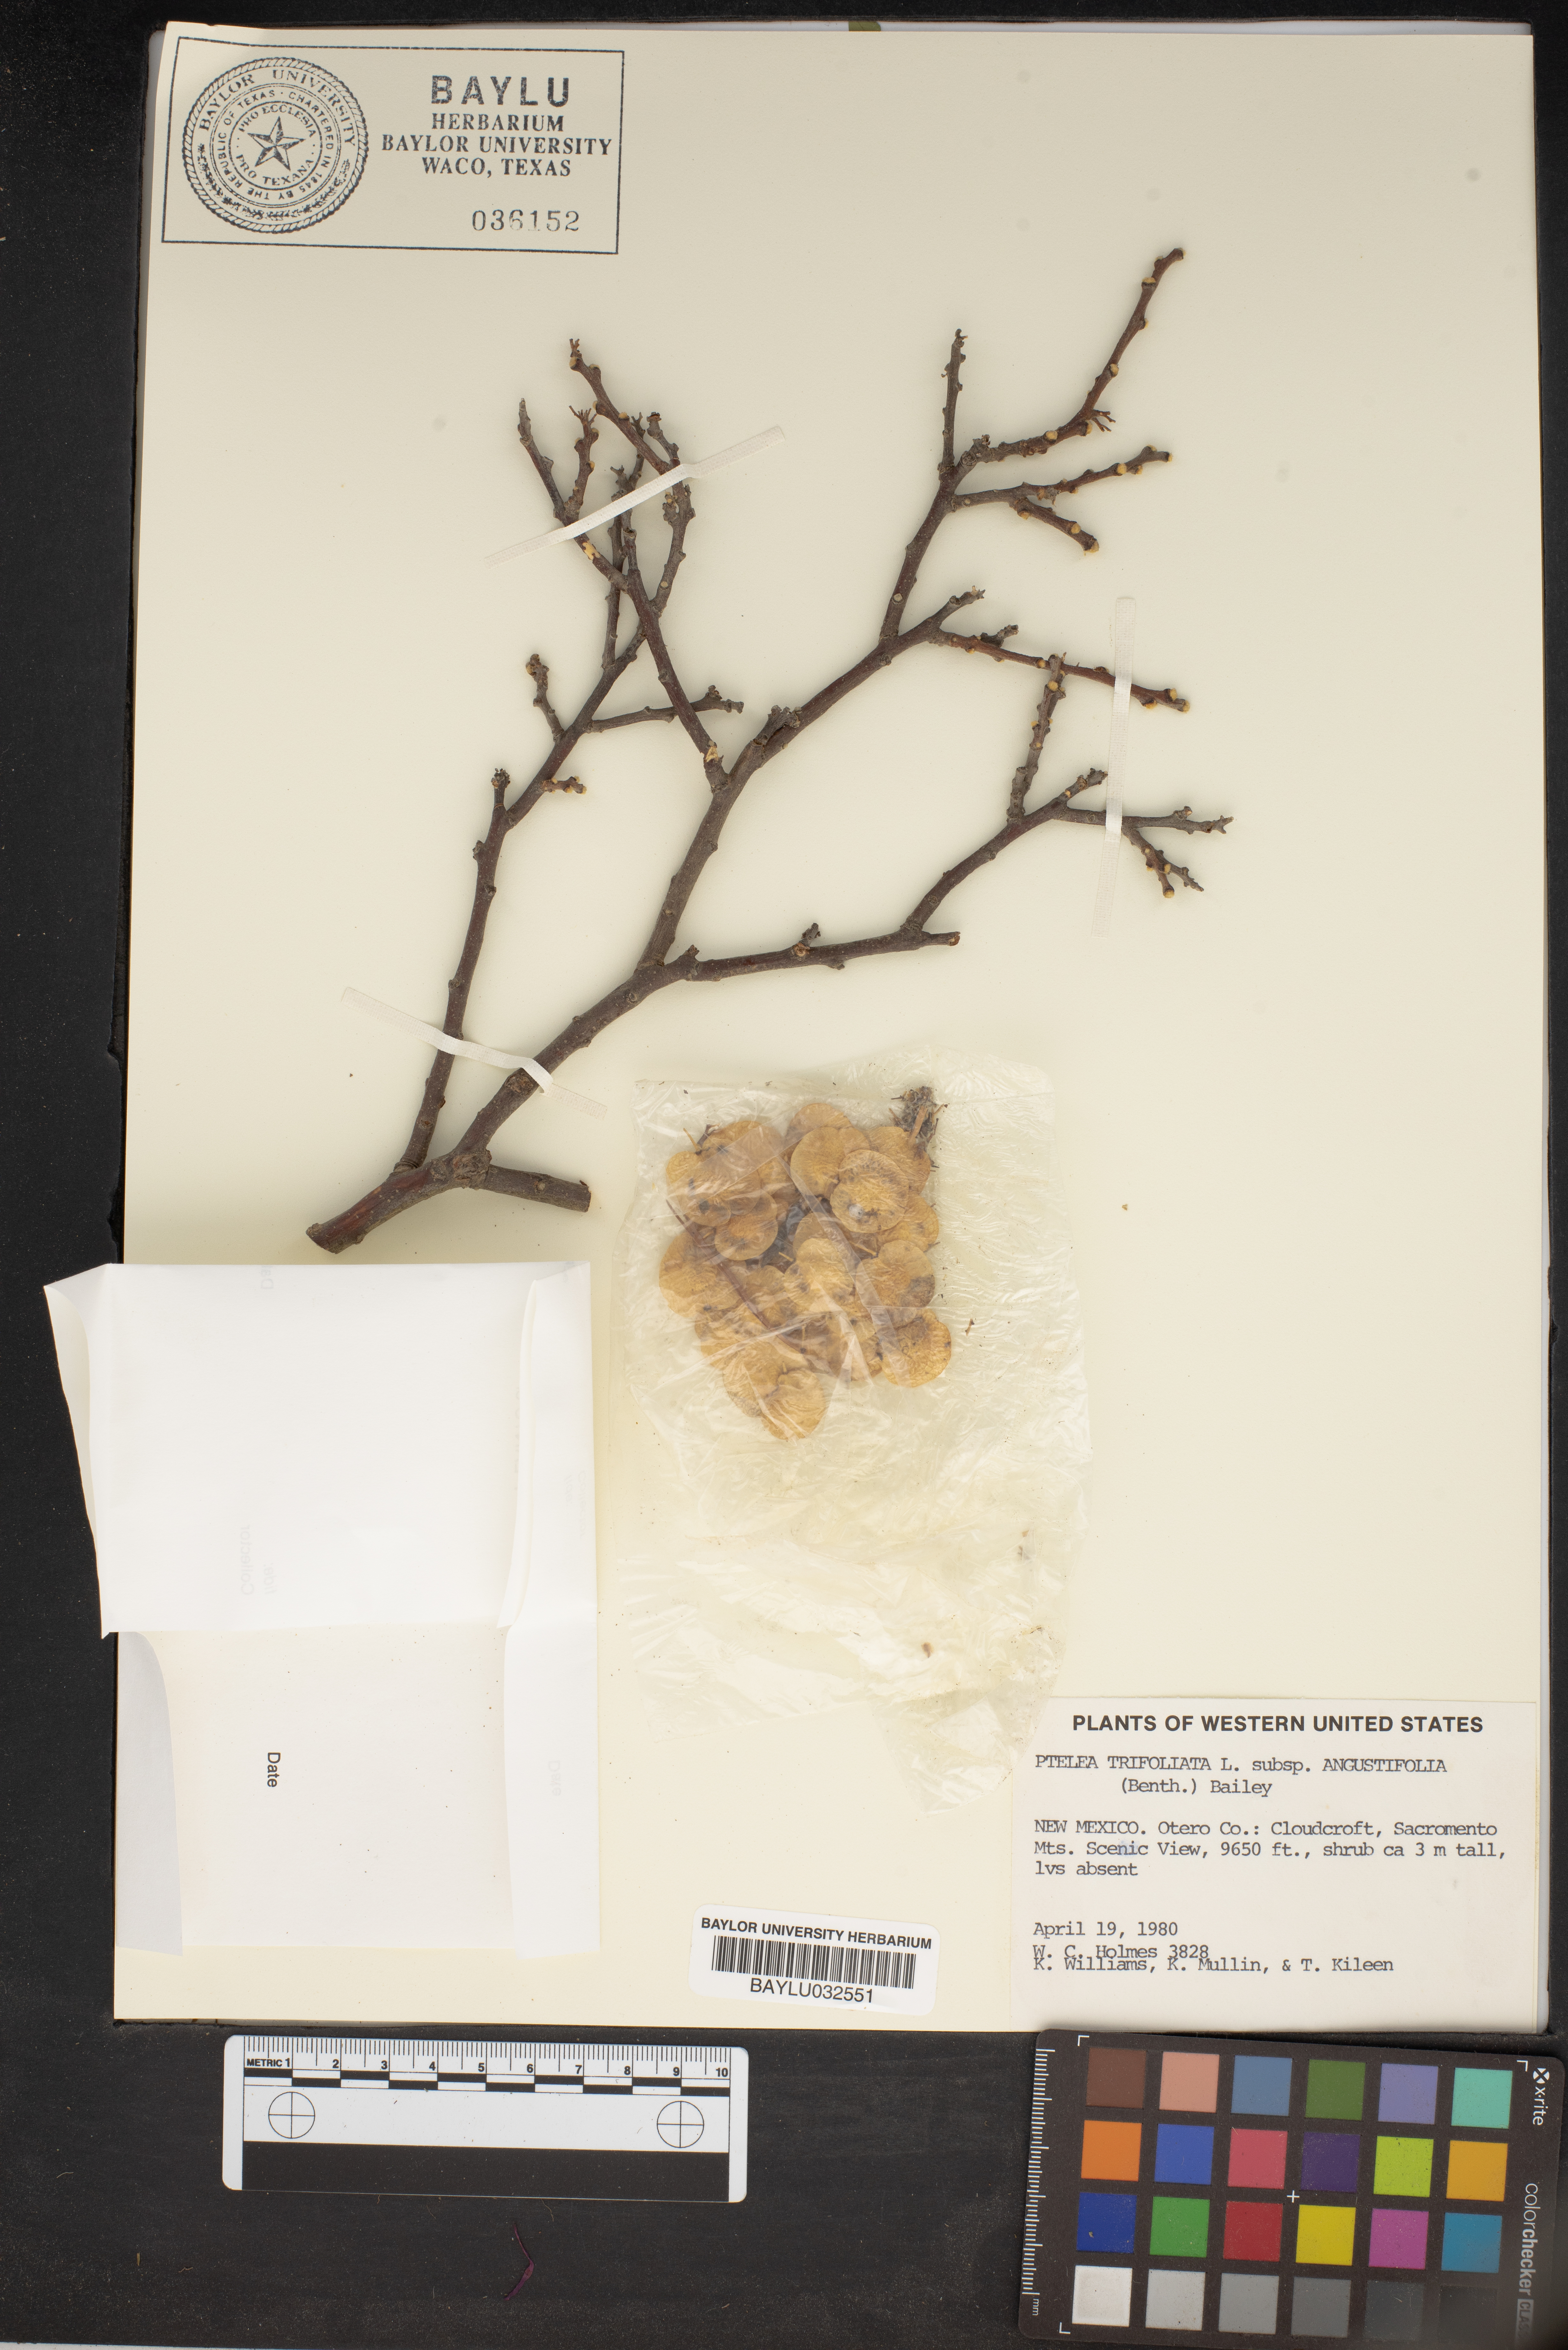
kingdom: Plantae
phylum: Tracheophyta
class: Magnoliopsida
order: Sapindales
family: Rutaceae
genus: Ptelea
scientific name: Ptelea trifoliata
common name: Common hop-tree
